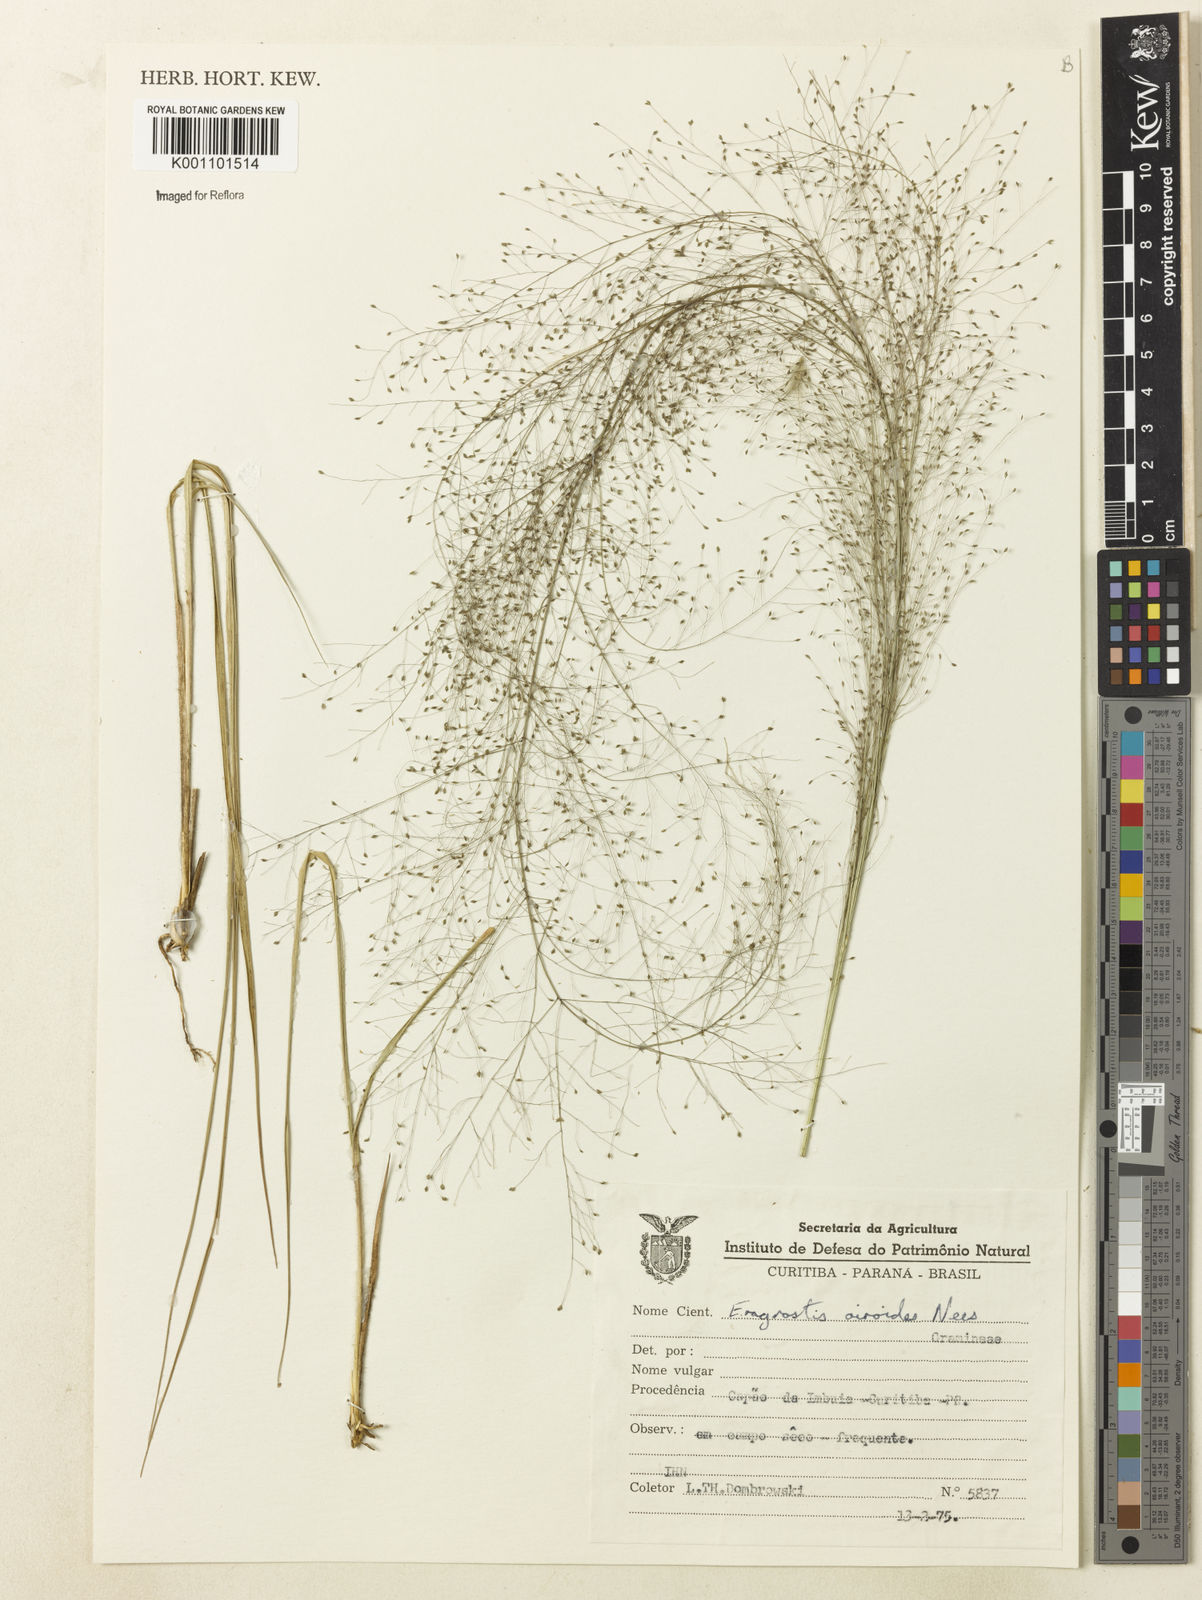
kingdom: Plantae
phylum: Tracheophyta
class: Liliopsida
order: Poales
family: Poaceae
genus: Eragrostis
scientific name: Eragrostis airoides
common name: Darnel lovegrass
